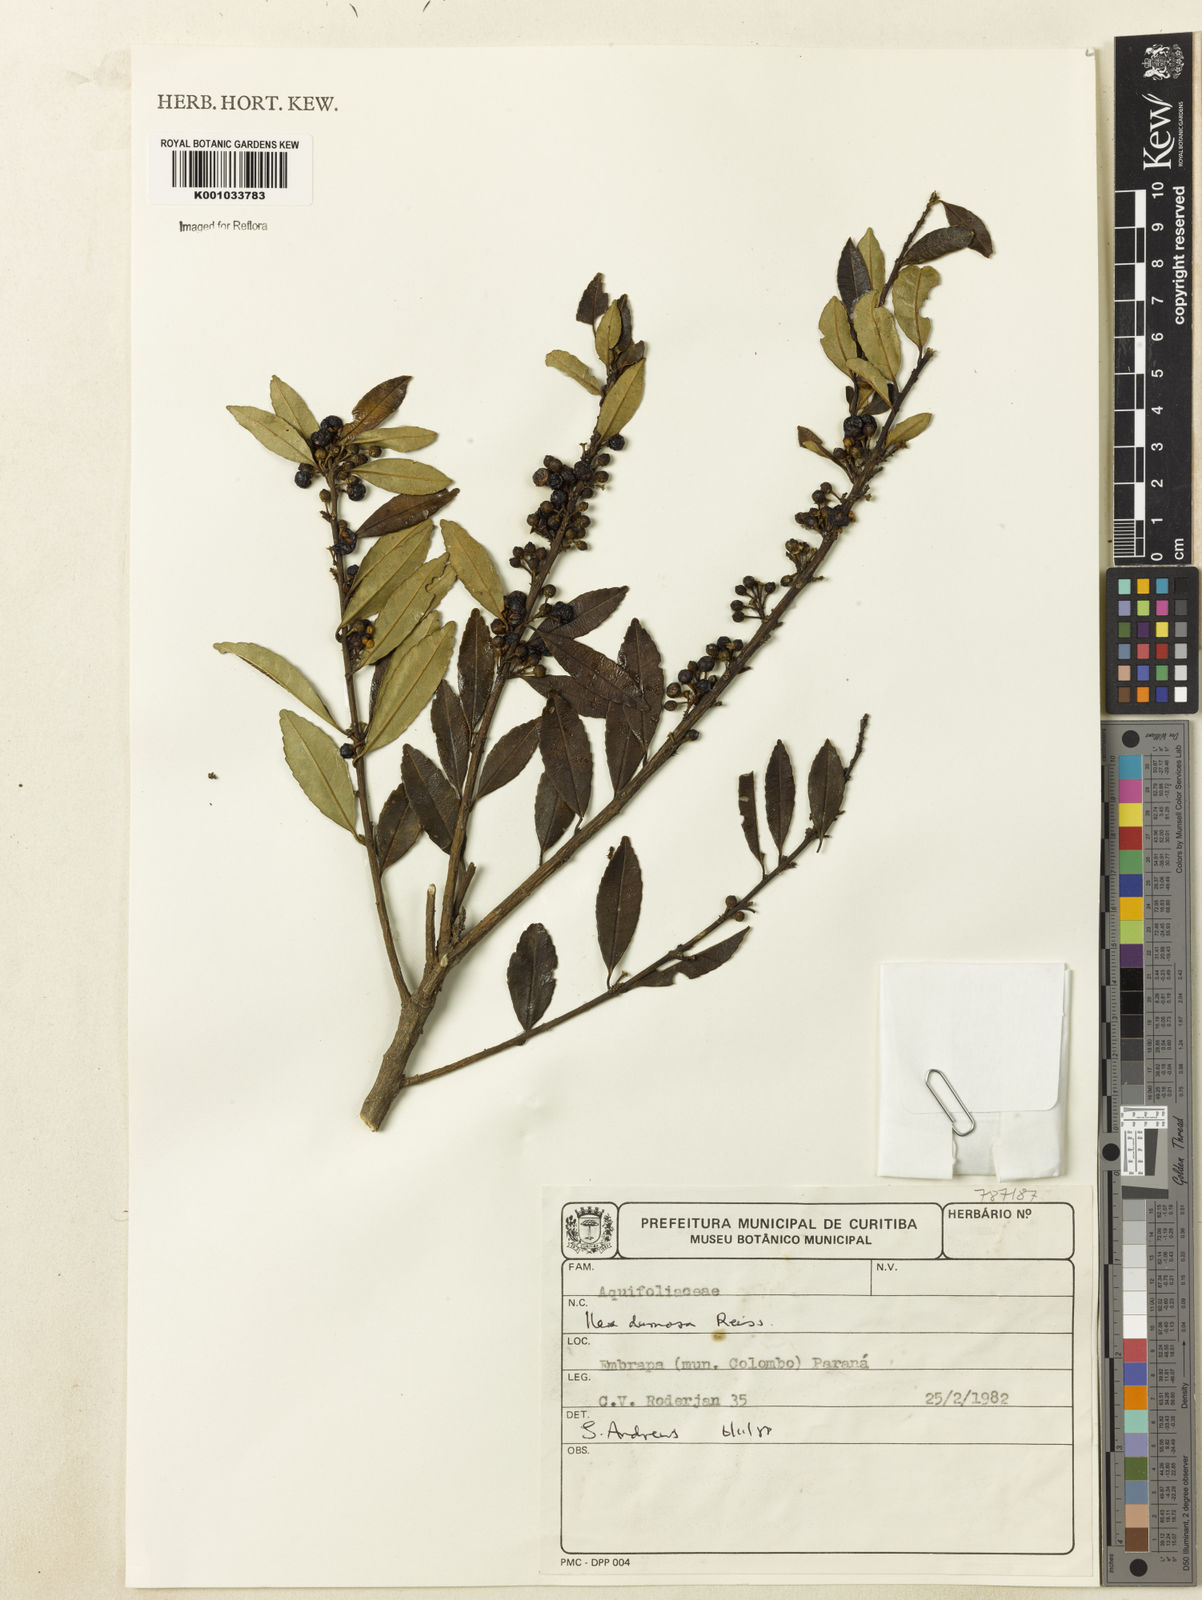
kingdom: Plantae
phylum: Tracheophyta
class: Magnoliopsida
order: Aquifoliales
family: Aquifoliaceae
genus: Ilex
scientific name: Ilex dumosa
